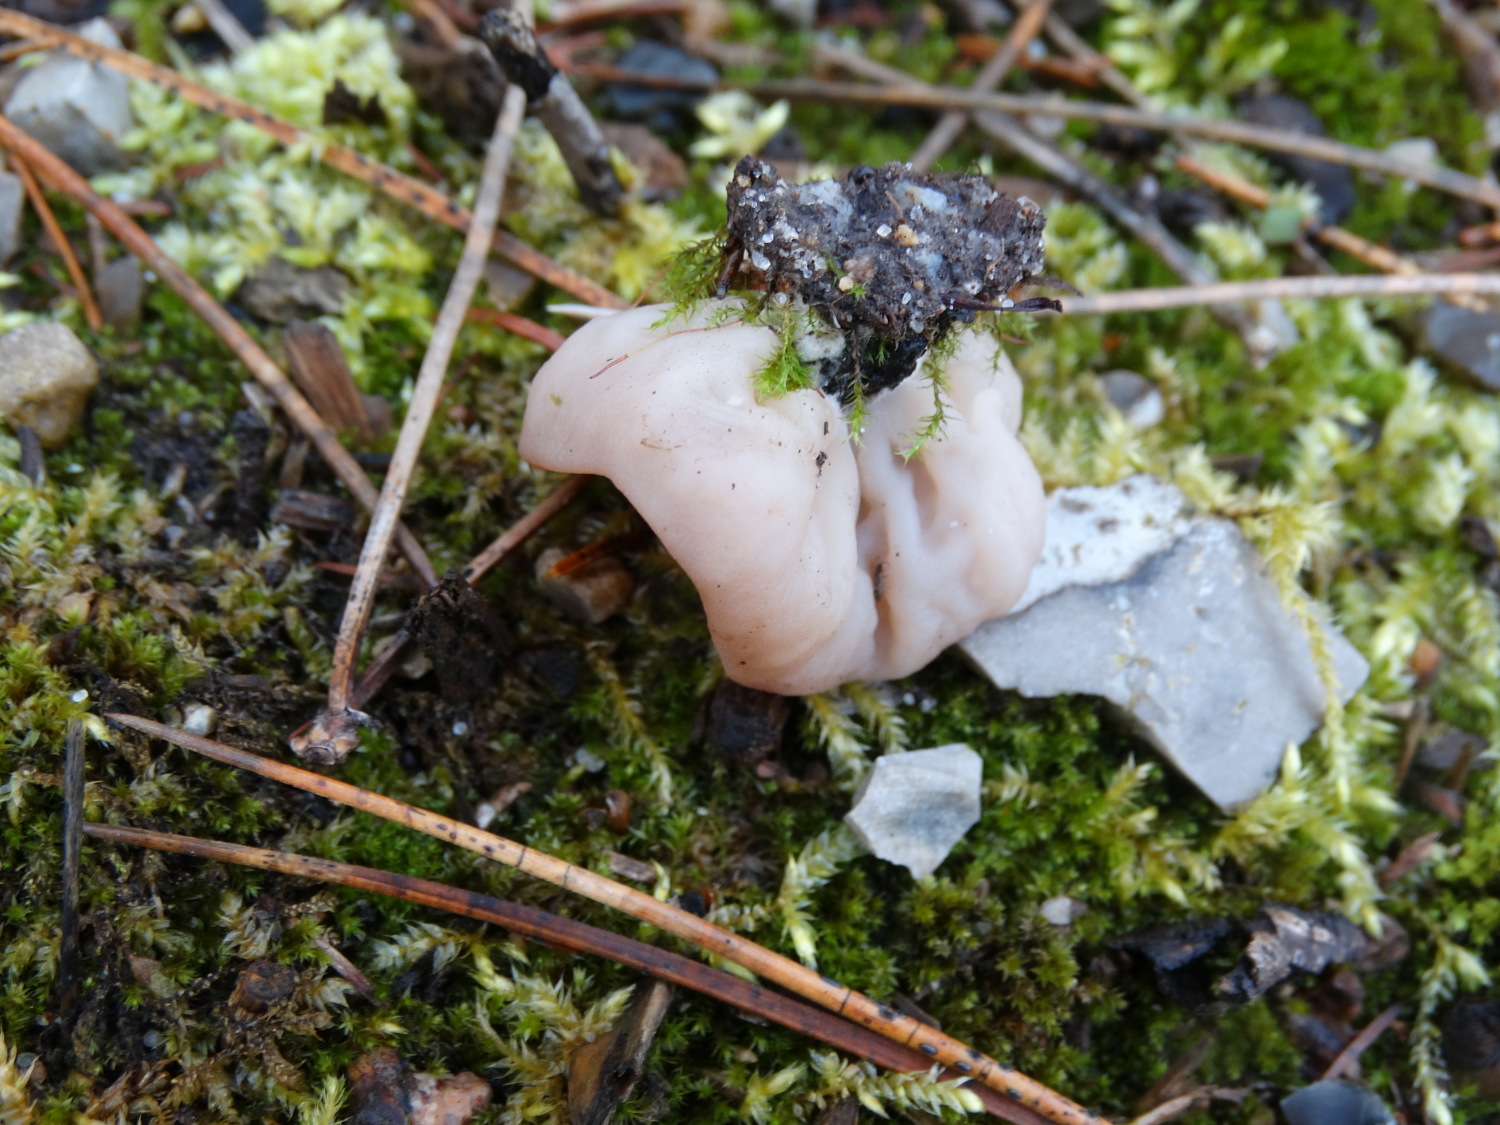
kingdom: Fungi
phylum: Ascomycota
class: Pezizomycetes
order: Pezizales
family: Discinaceae
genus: Discina
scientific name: Discina ancilis
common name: udbredt stenmorkel
